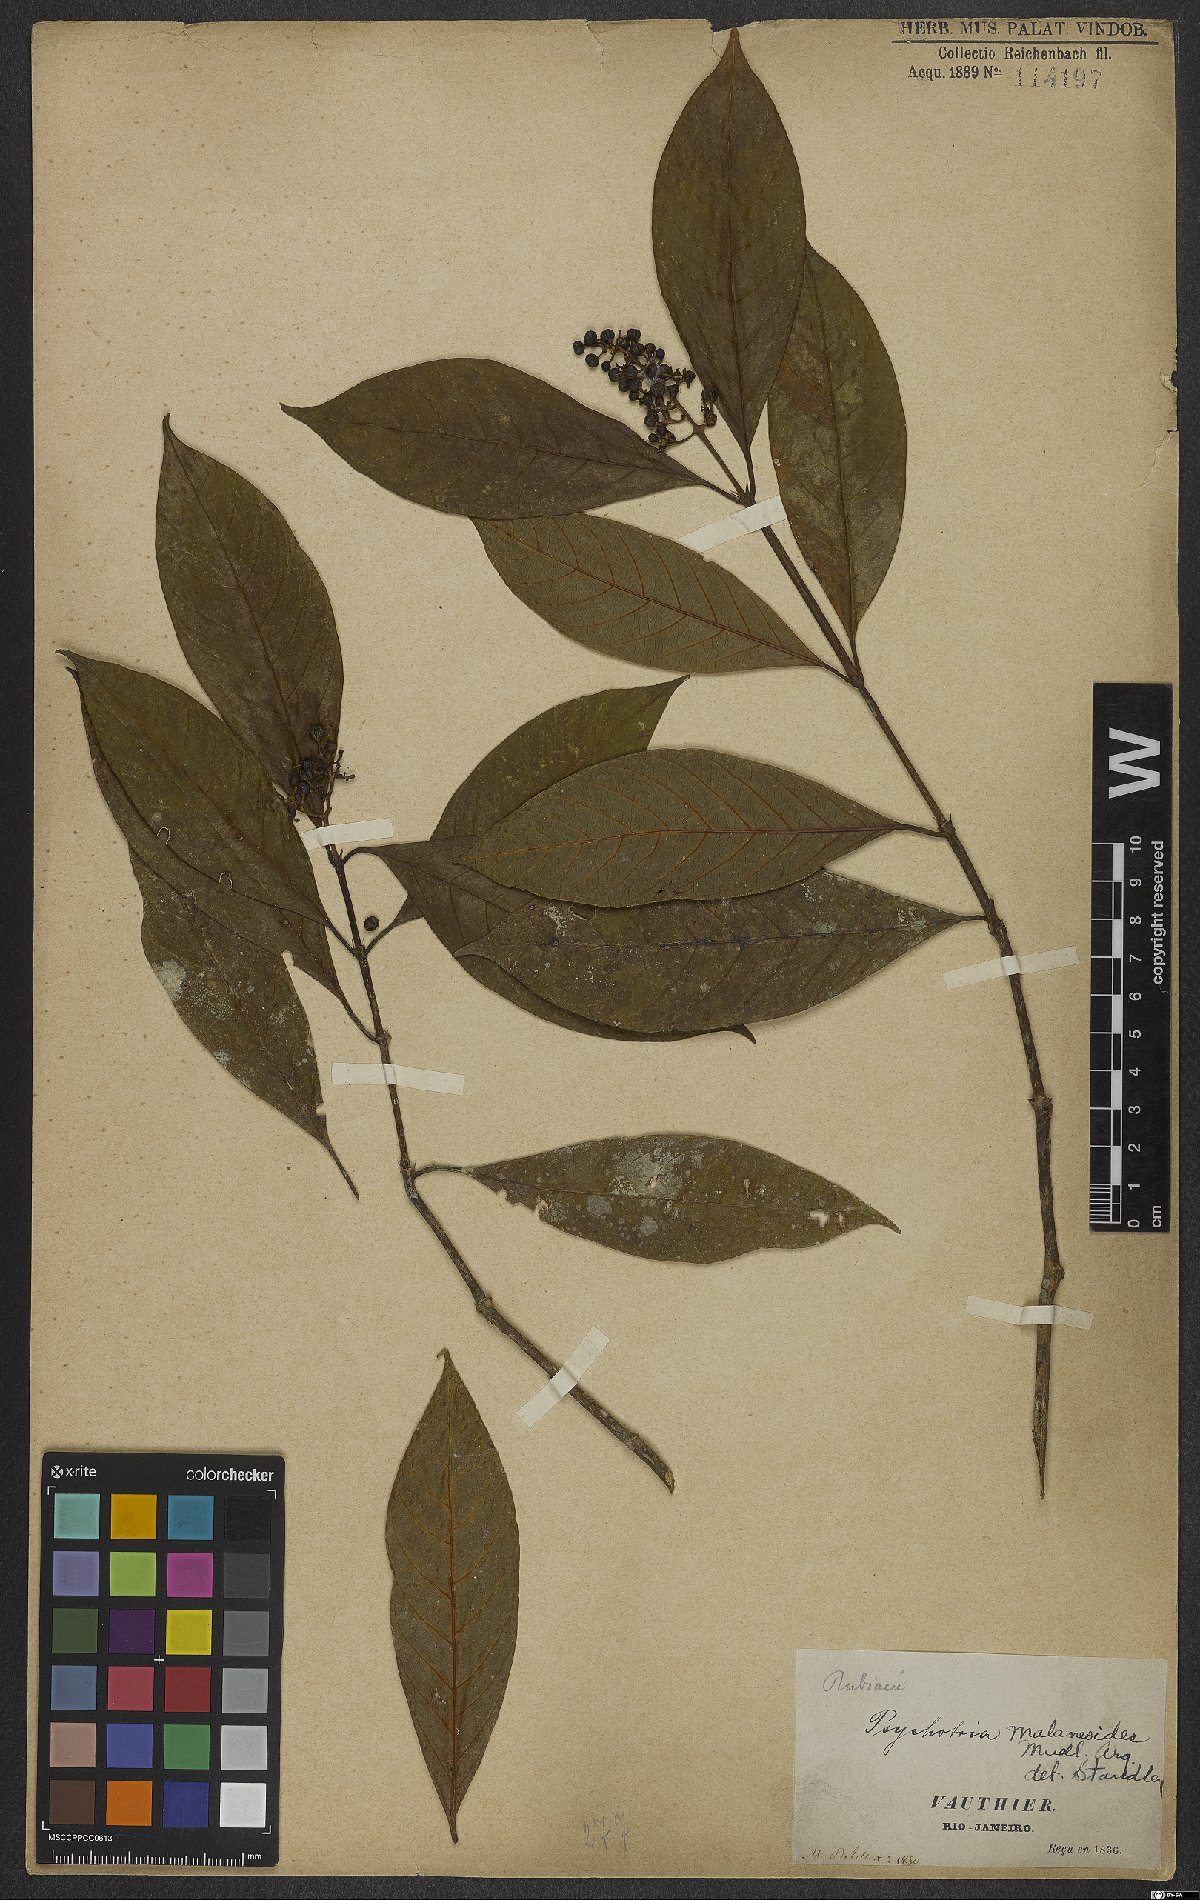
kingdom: Plantae
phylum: Tracheophyta
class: Magnoliopsida
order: Gentianales
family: Rubiaceae
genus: Palicourea
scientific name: Palicourea malaneoides
